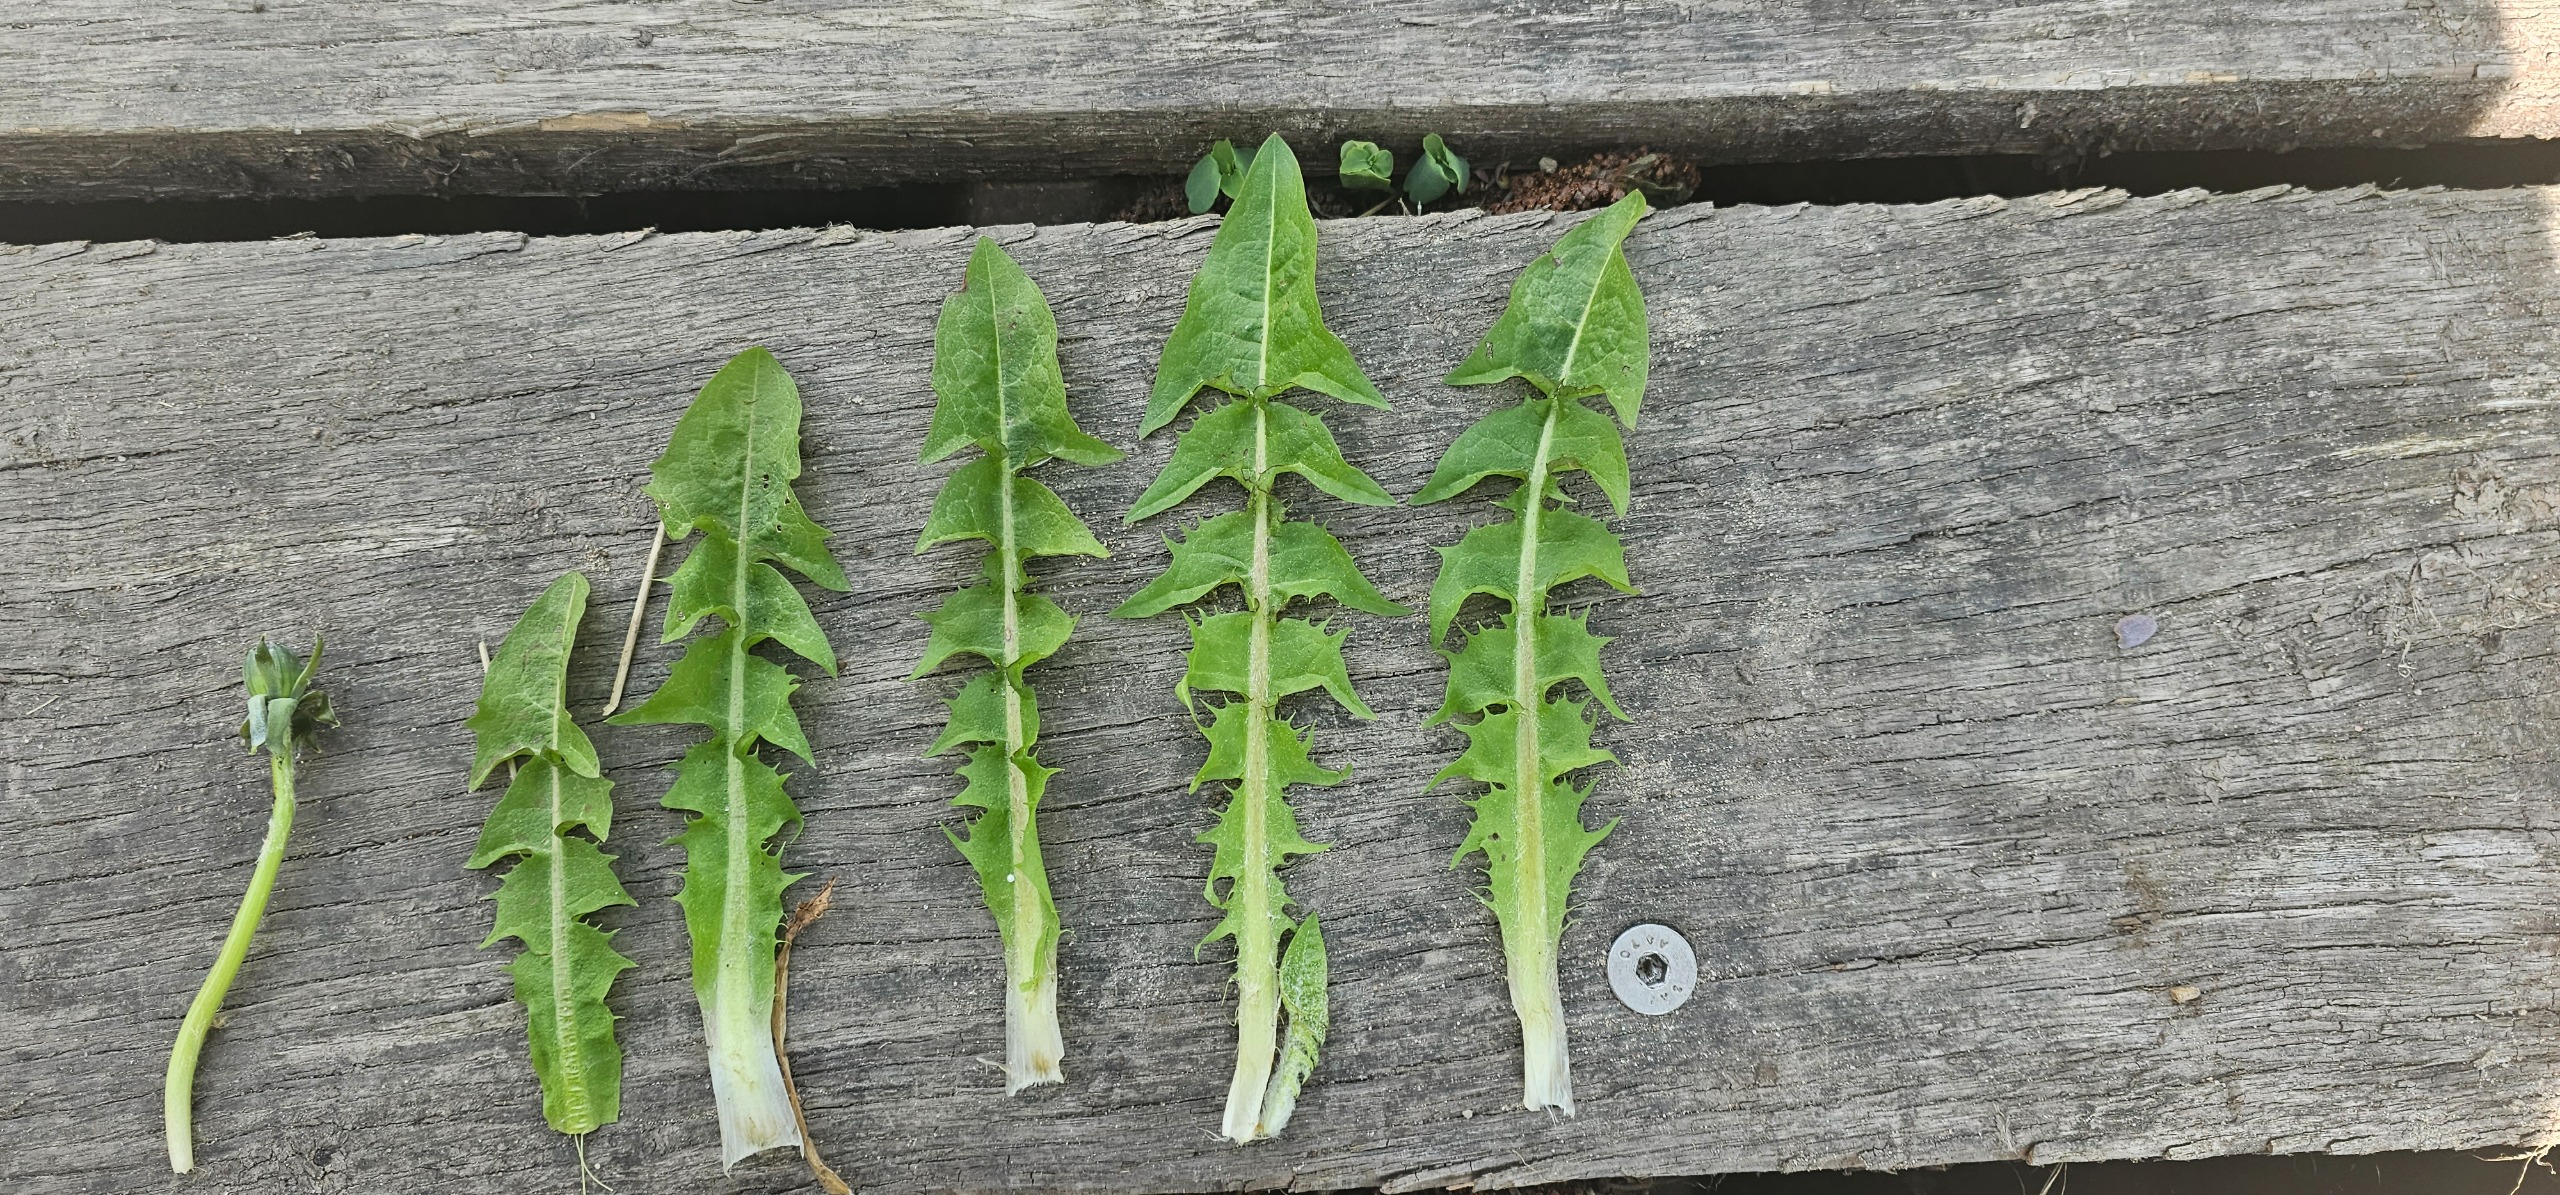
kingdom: Plantae
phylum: Tracheophyta
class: Magnoliopsida
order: Asterales
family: Asteraceae
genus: Taraxacum
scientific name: Taraxacum
